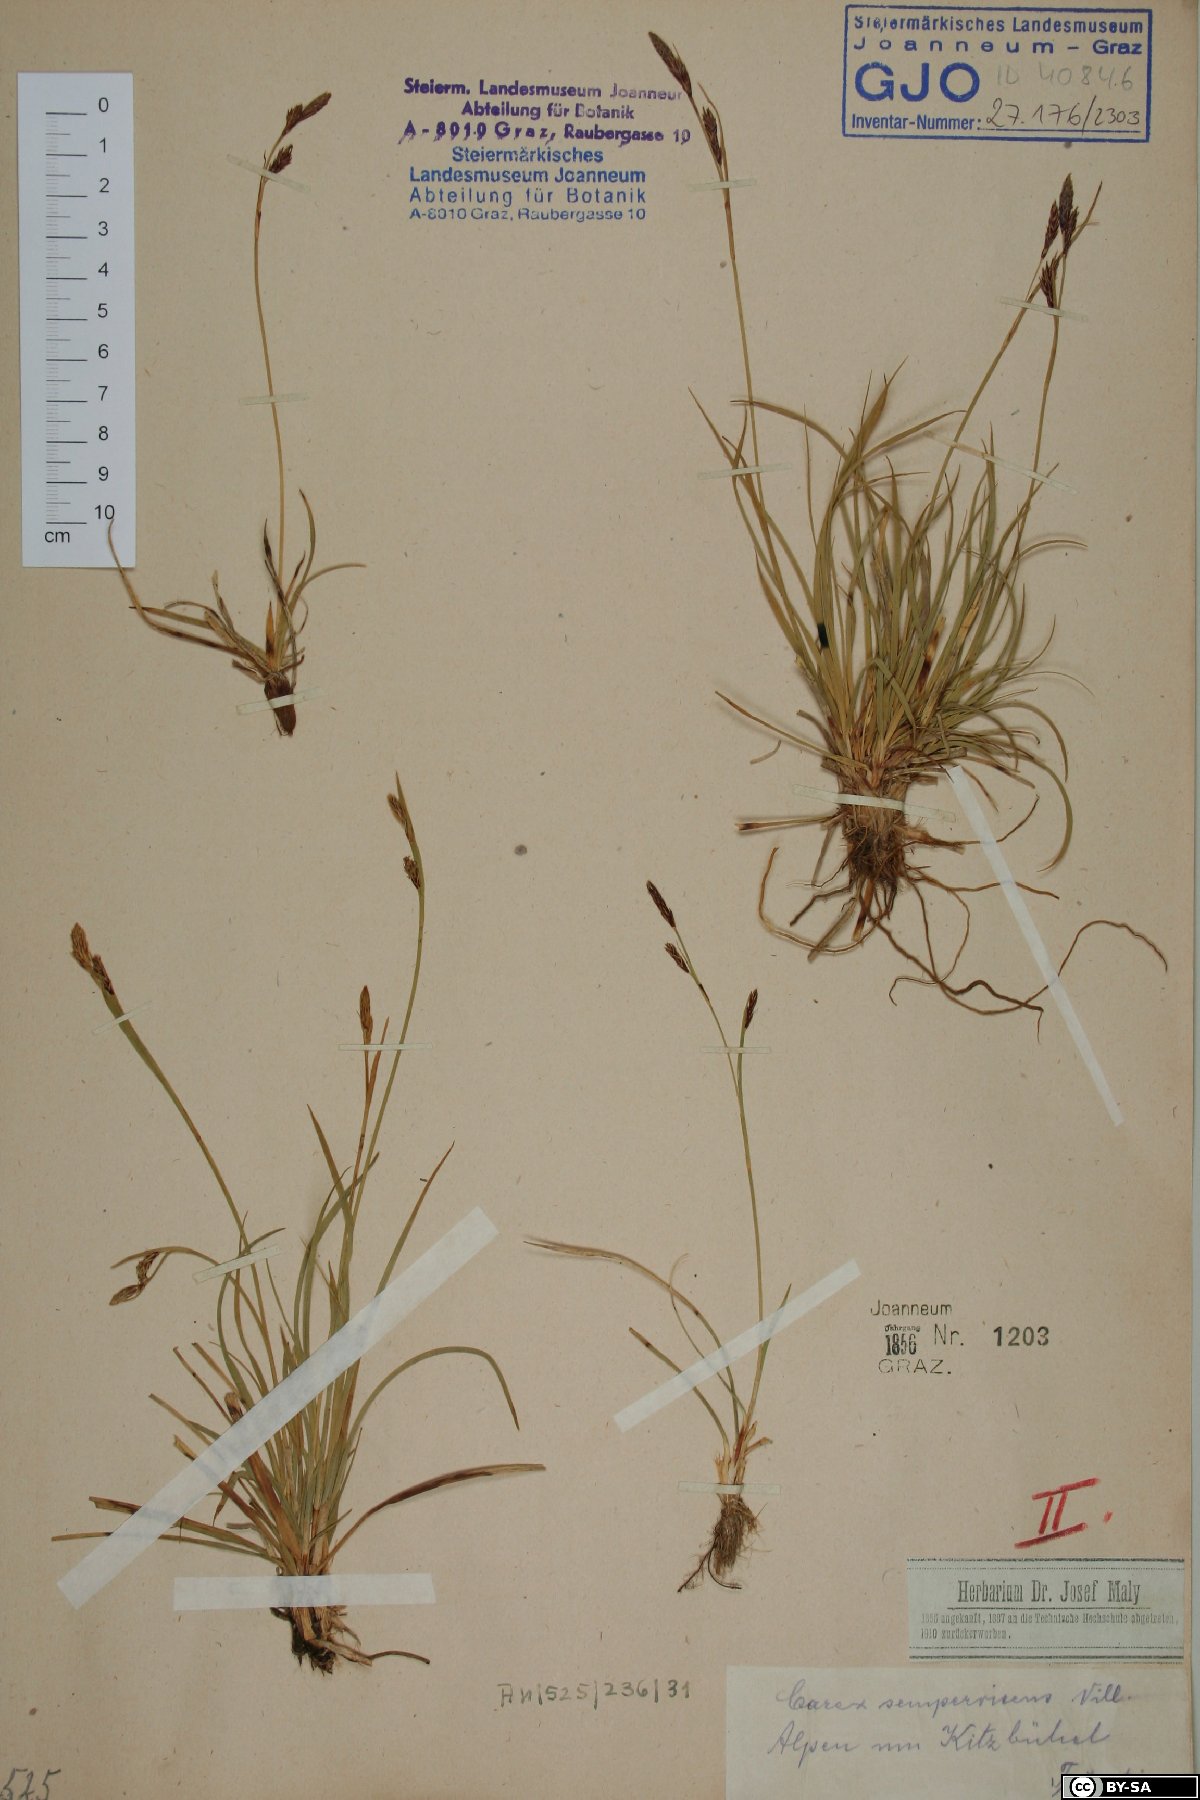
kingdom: Plantae
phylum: Tracheophyta
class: Liliopsida
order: Poales
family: Cyperaceae
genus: Carex
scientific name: Carex sempervirens
